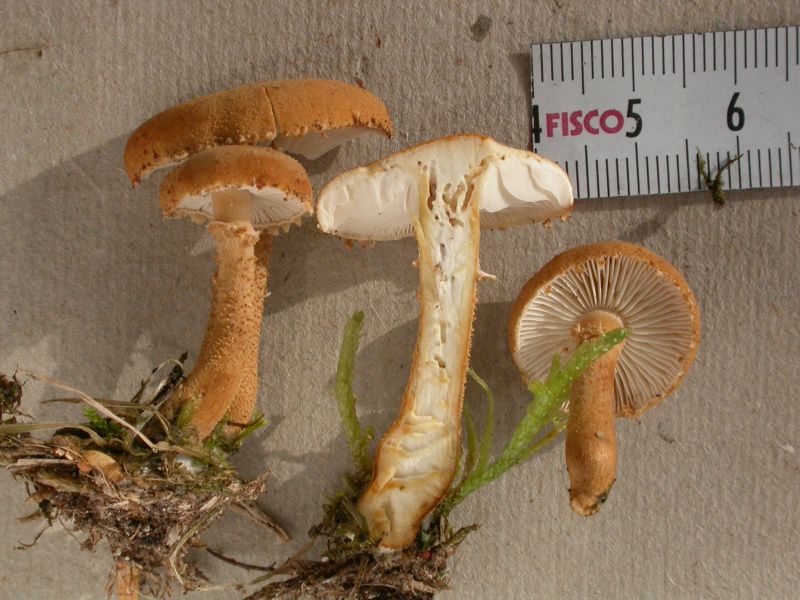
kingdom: Fungi
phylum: Basidiomycota
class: Agaricomycetes
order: Agaricales
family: Tricholomataceae
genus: Cystoderma
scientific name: Cystoderma amianthinum
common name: okkergul grynhat
